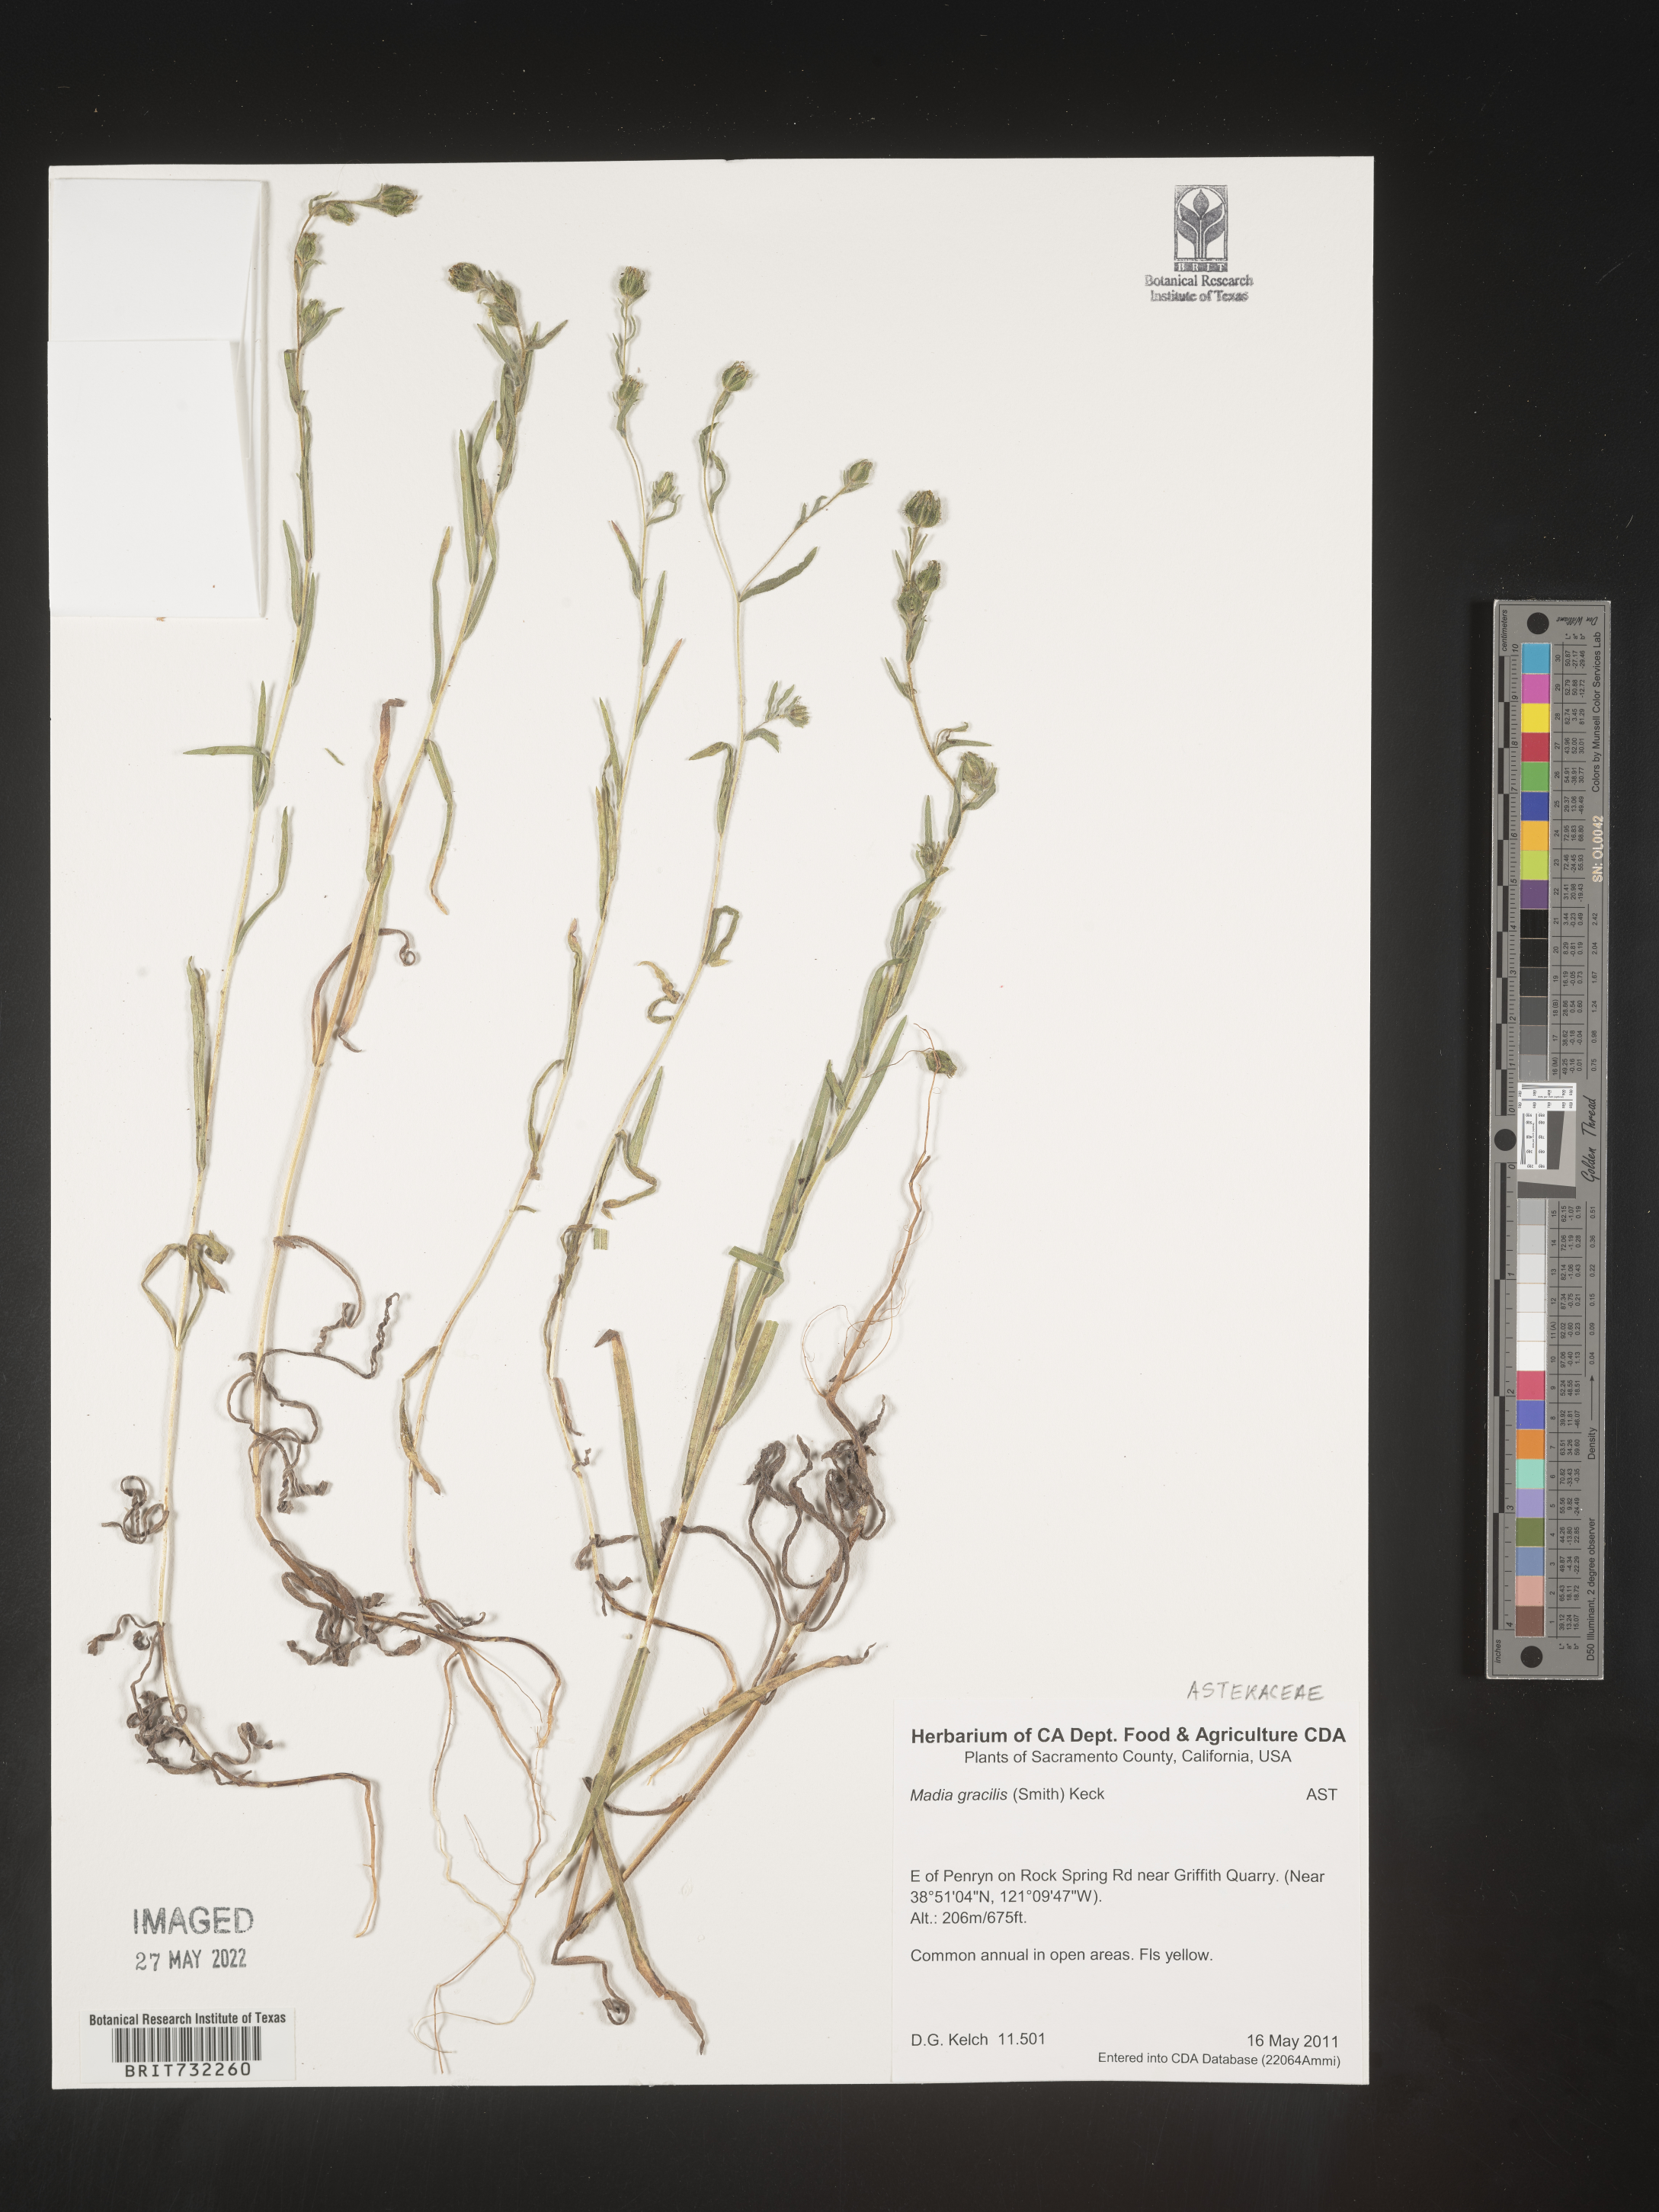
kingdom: Plantae
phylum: Tracheophyta
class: Magnoliopsida
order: Asterales
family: Asteraceae
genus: Madia
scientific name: Madia gracilis
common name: Grassy tarweed
